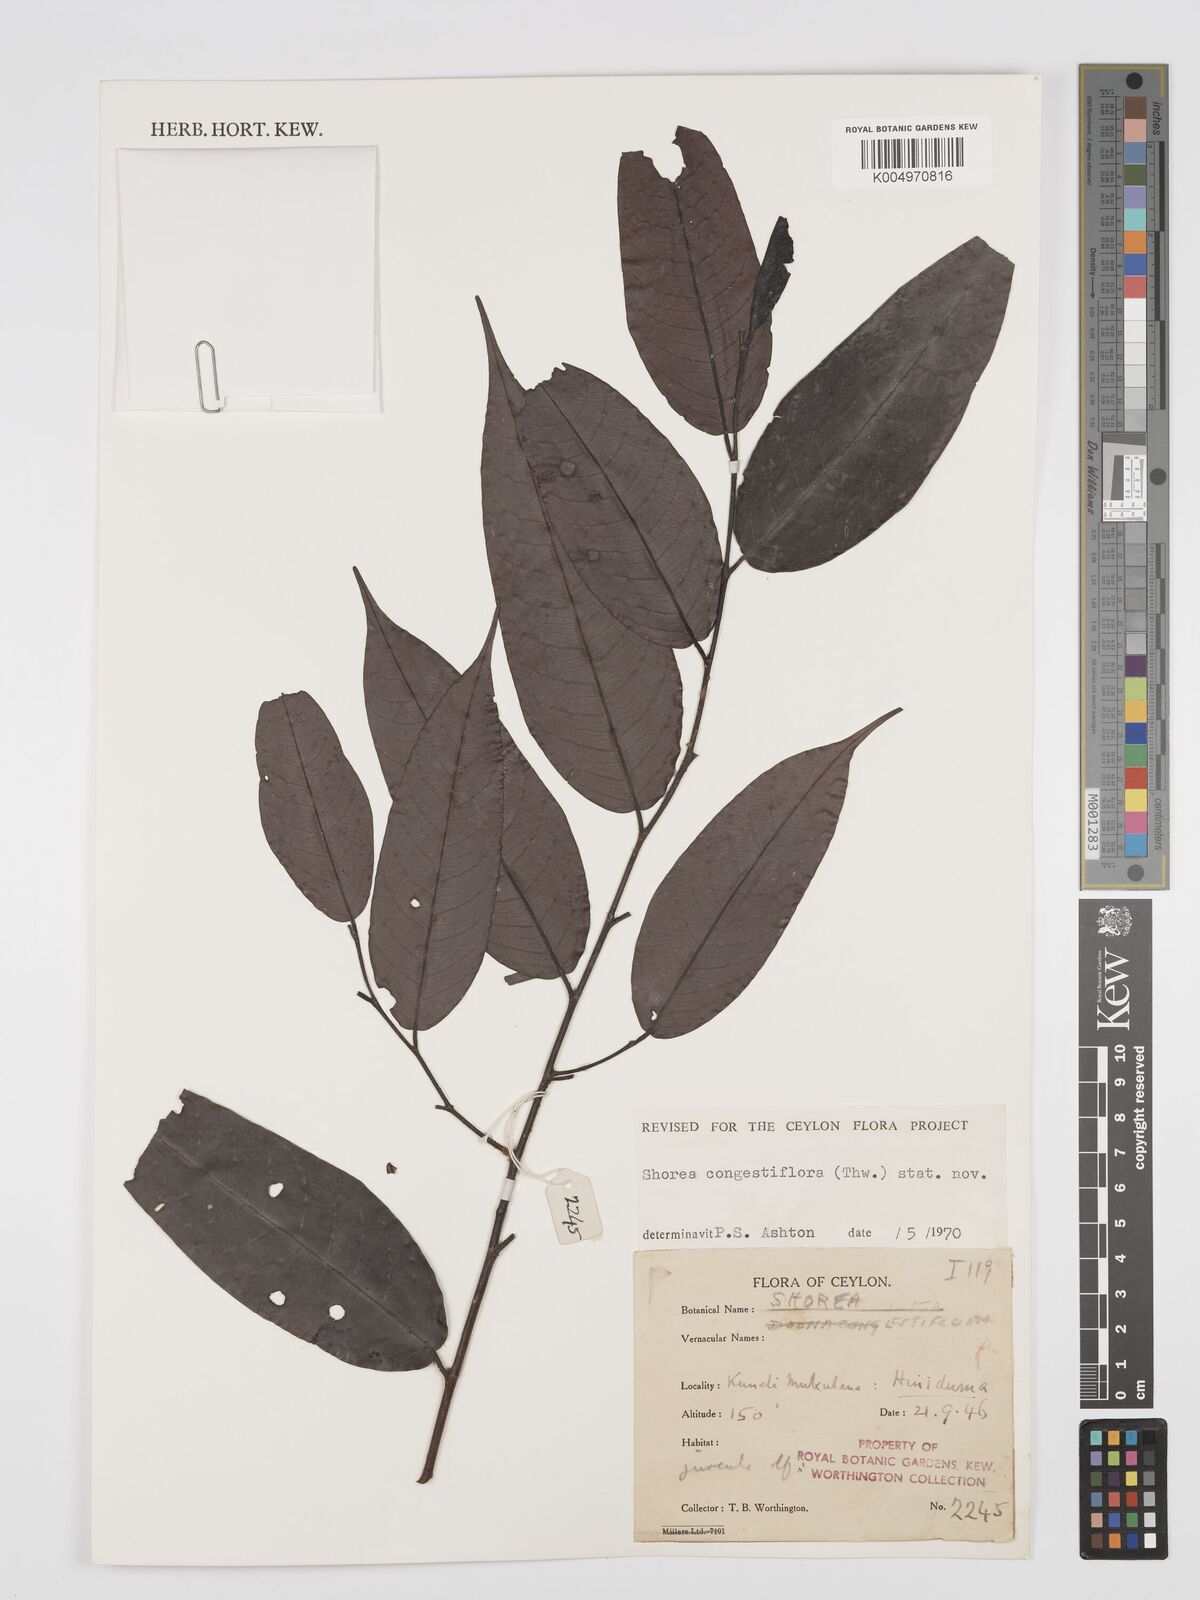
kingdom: Plantae
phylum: Tracheophyta
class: Magnoliopsida
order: Malvales
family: Dipterocarpaceae
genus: Doona
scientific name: Doona congestiflora
